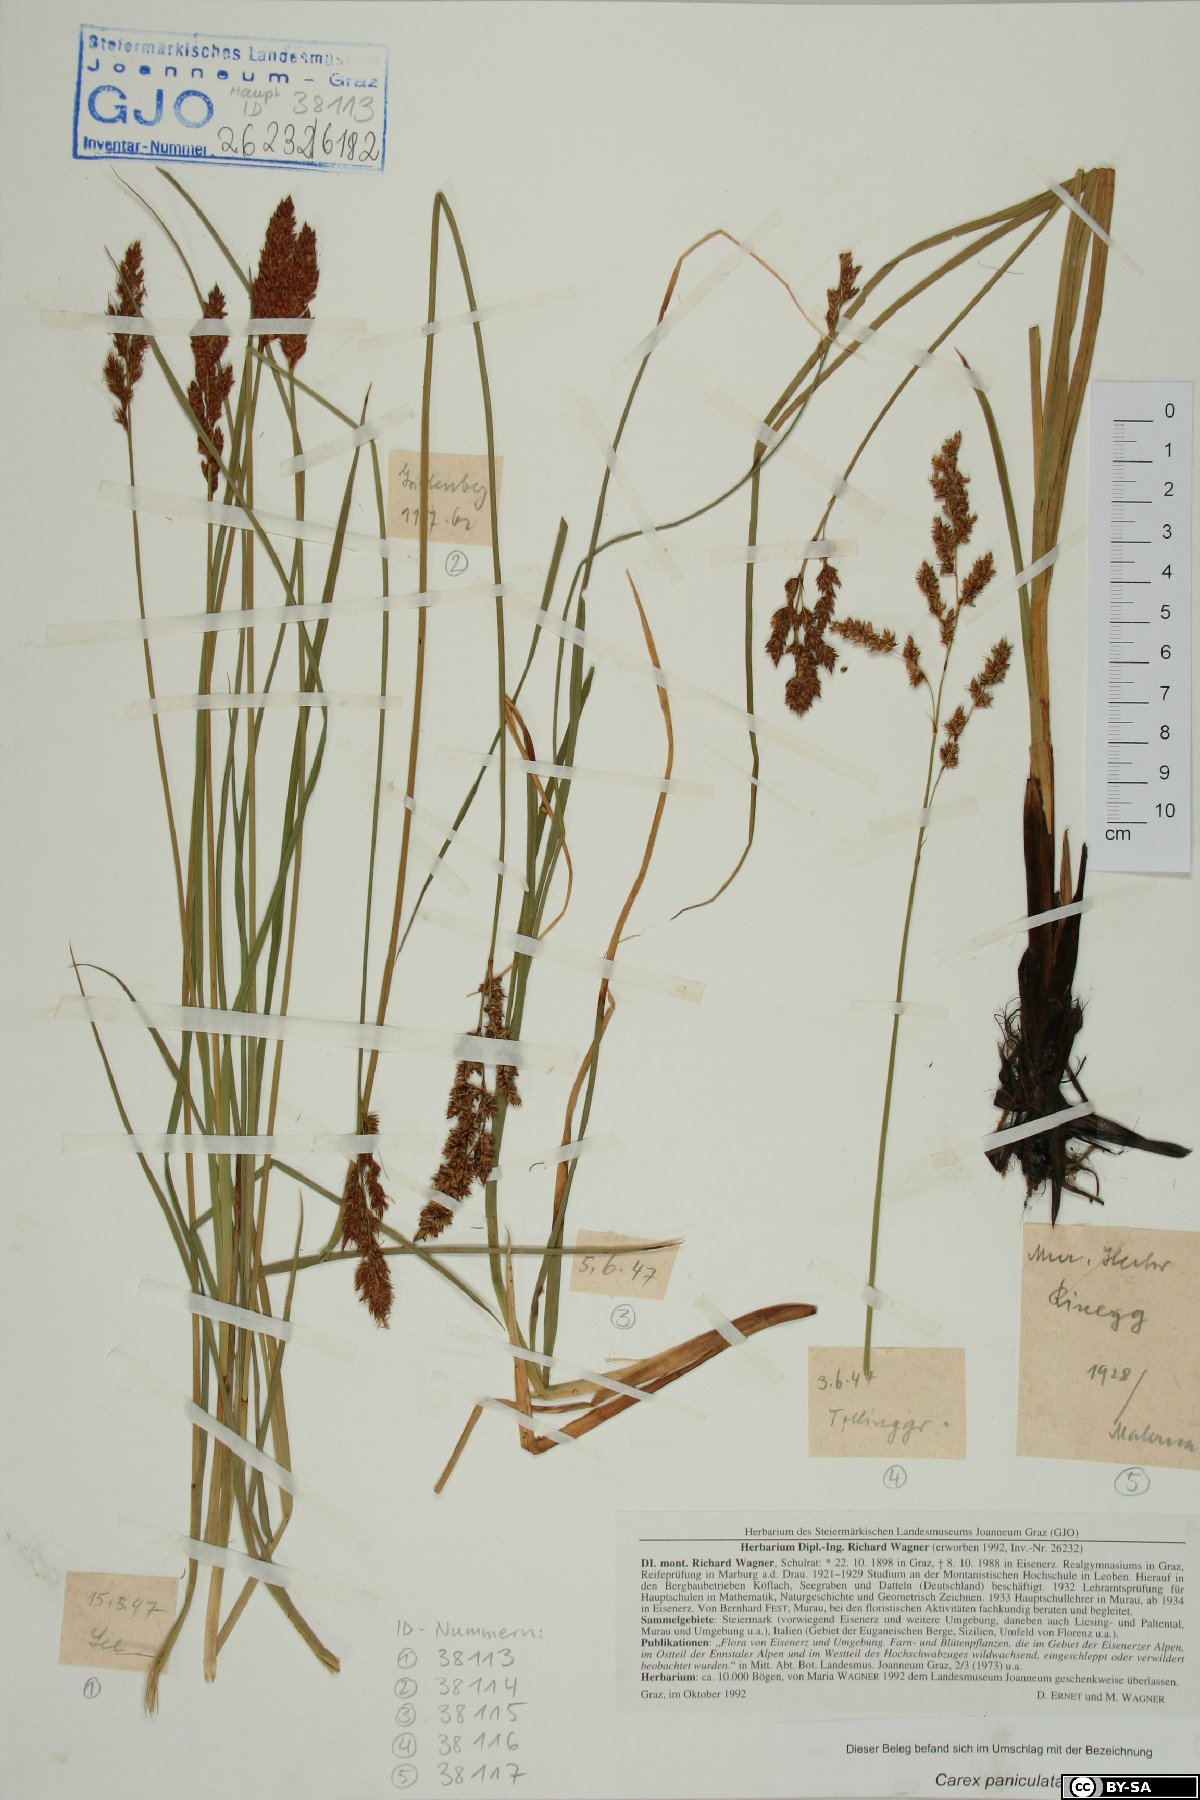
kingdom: Plantae
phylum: Tracheophyta
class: Liliopsida
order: Poales
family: Cyperaceae
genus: Carex
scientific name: Carex paniculata
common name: Greater tussock-sedge
